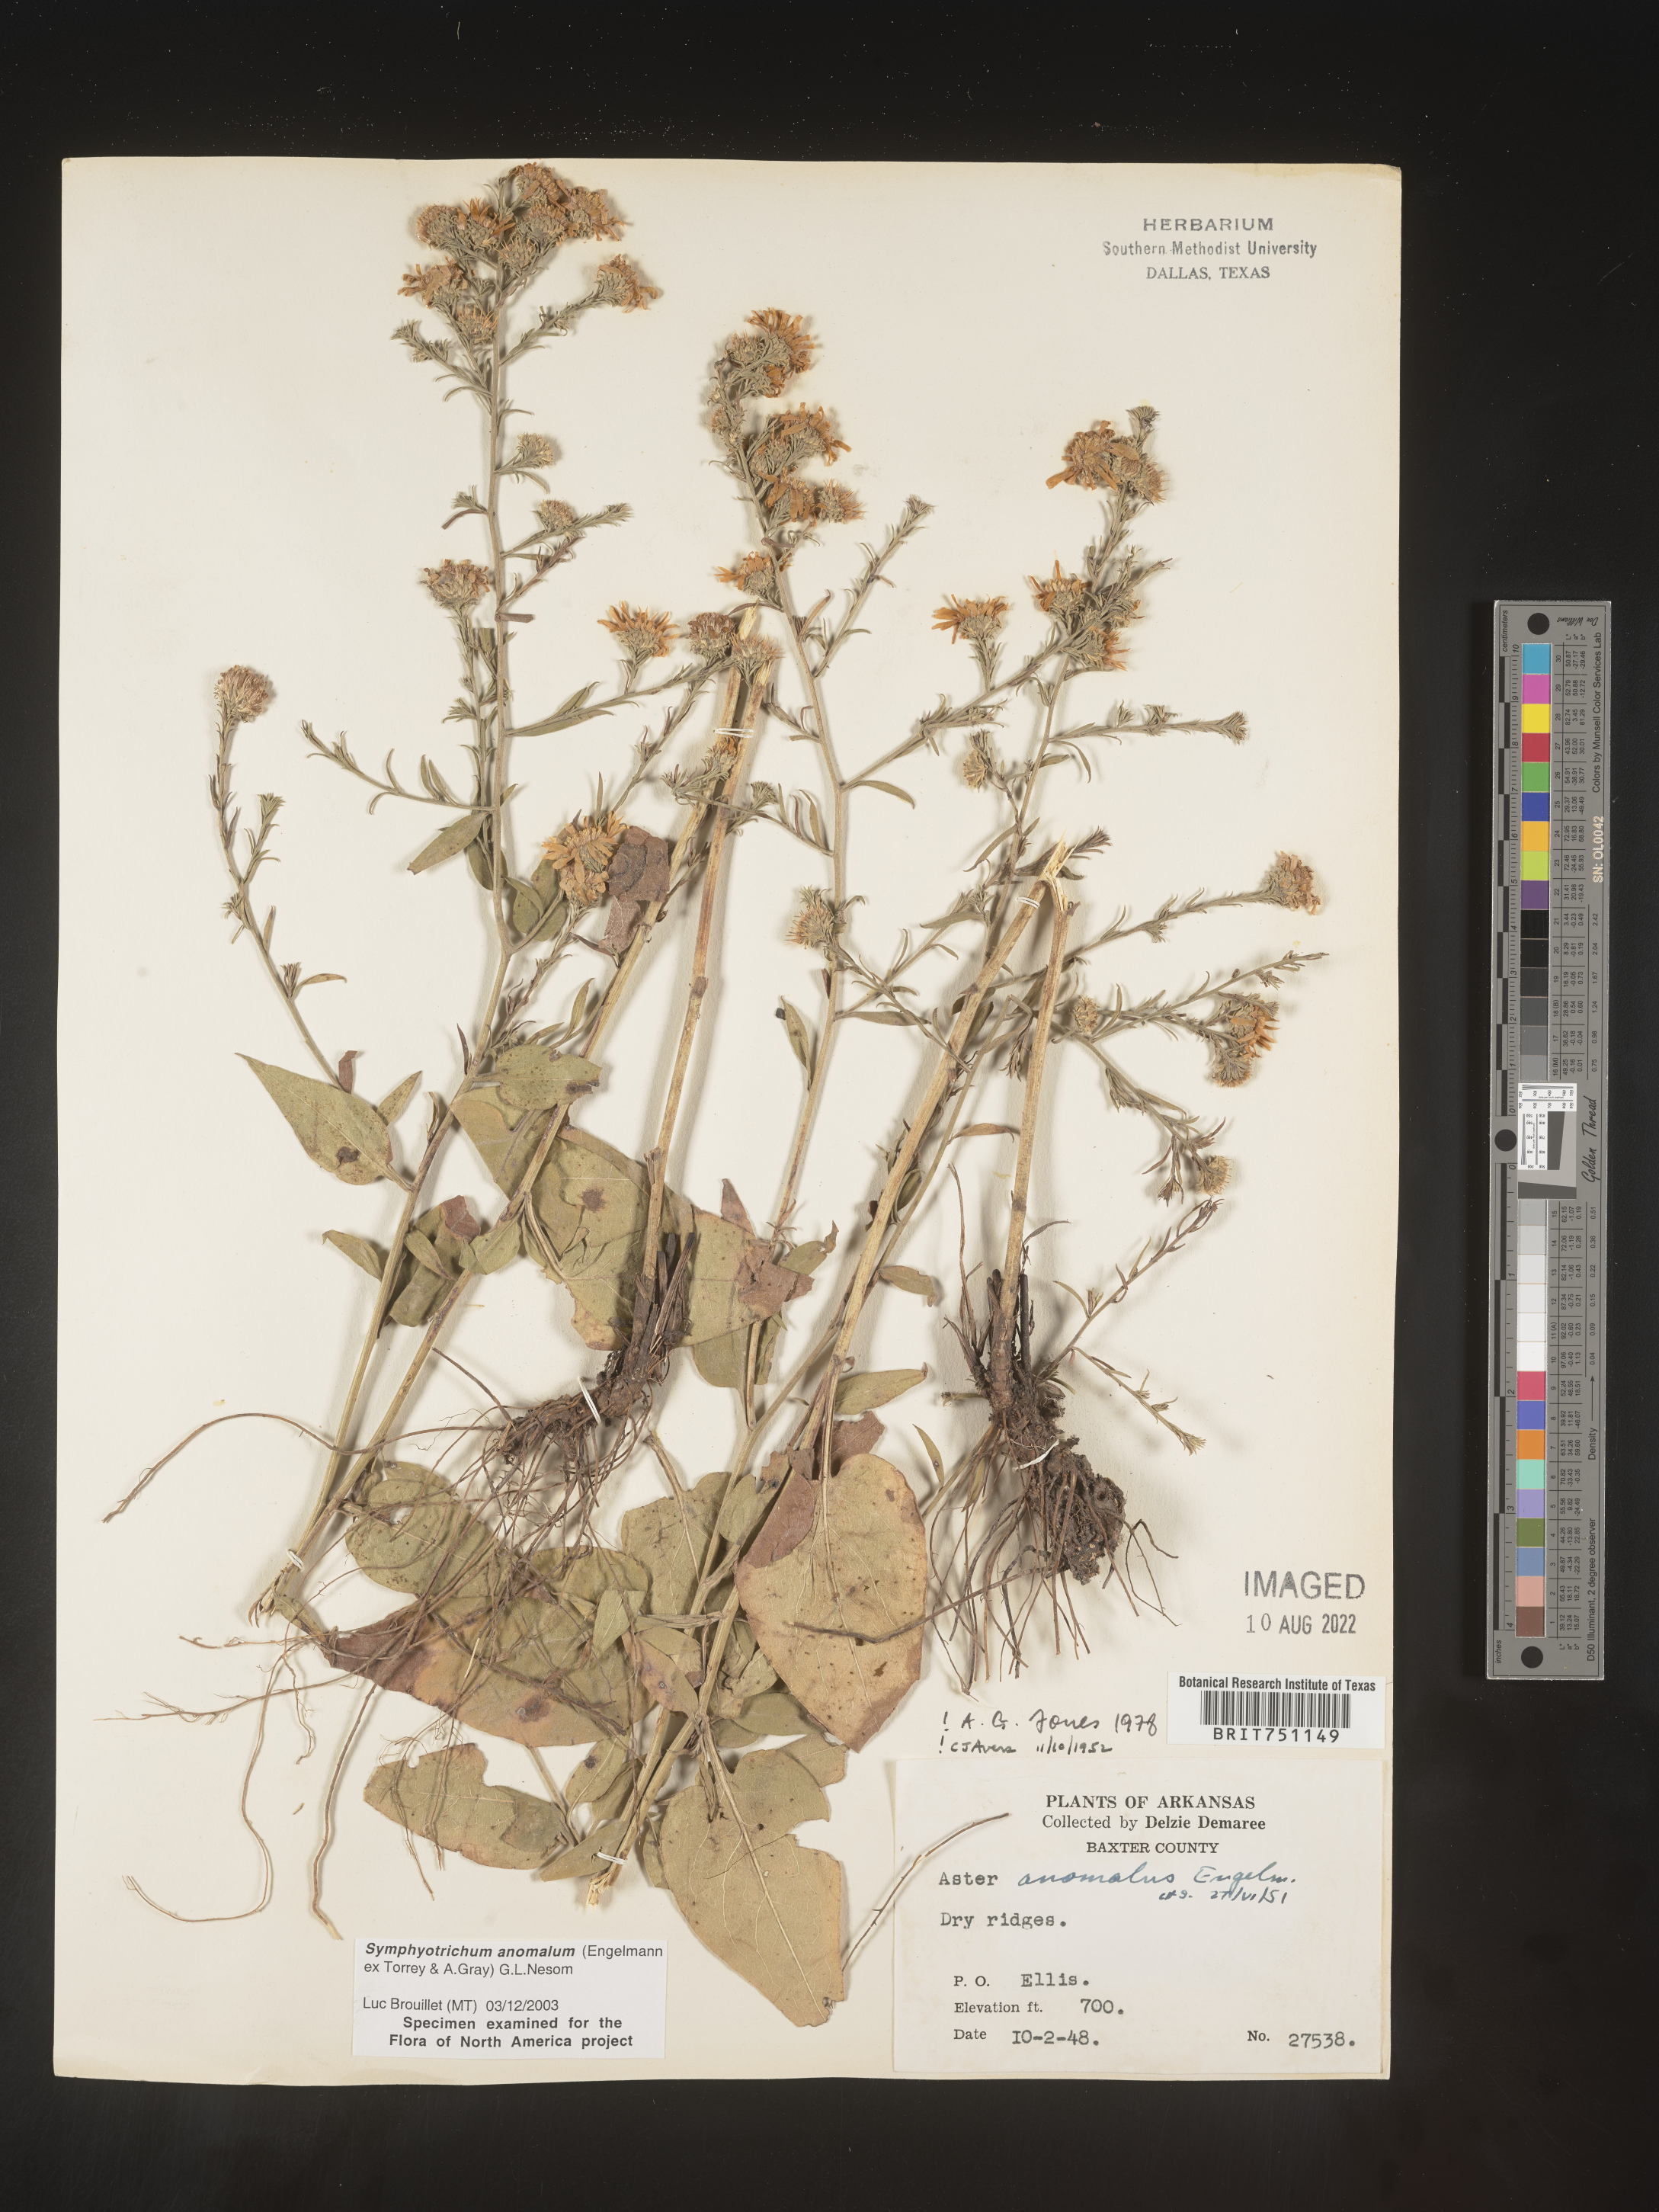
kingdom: Plantae
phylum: Tracheophyta
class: Magnoliopsida
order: Asterales
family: Asteraceae
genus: Symphyotrichum
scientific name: Symphyotrichum anomalum
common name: Many-ray aster
